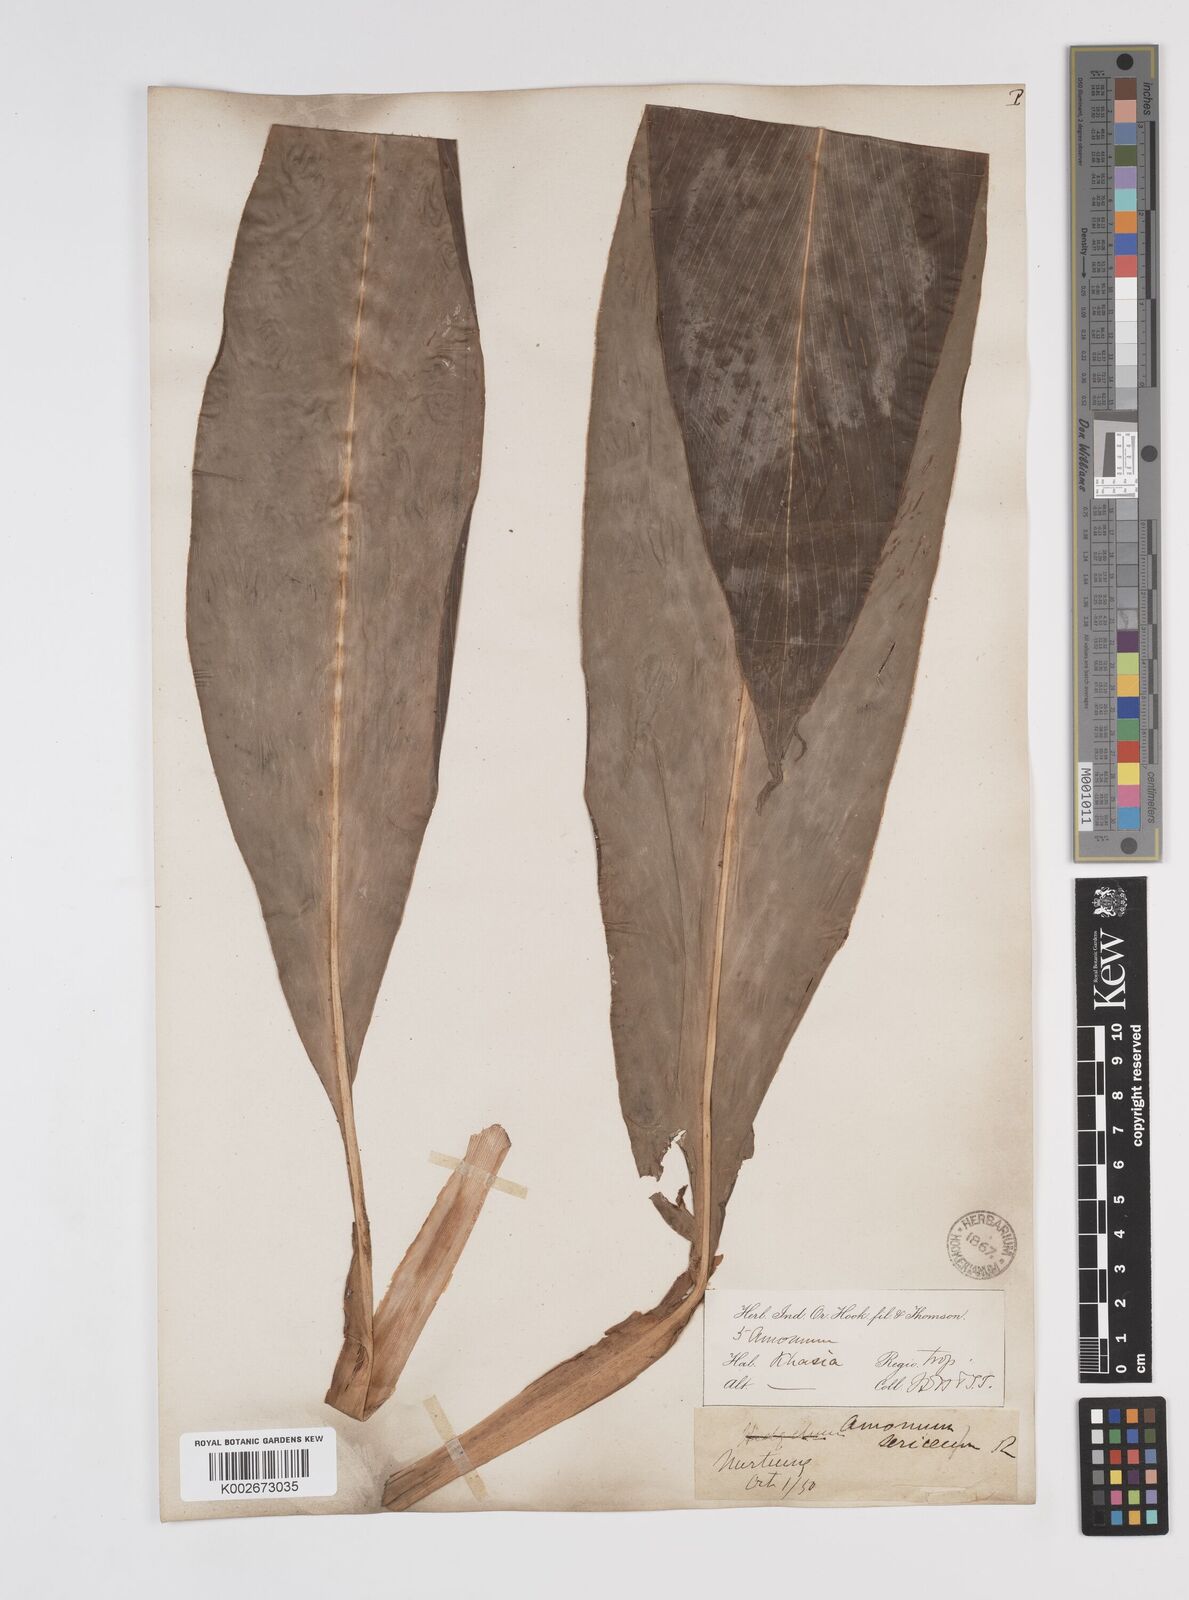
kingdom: Plantae
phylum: Tracheophyta
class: Liliopsida
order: Zingiberales
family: Zingiberaceae
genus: Amomum
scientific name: Amomum dealbatum
